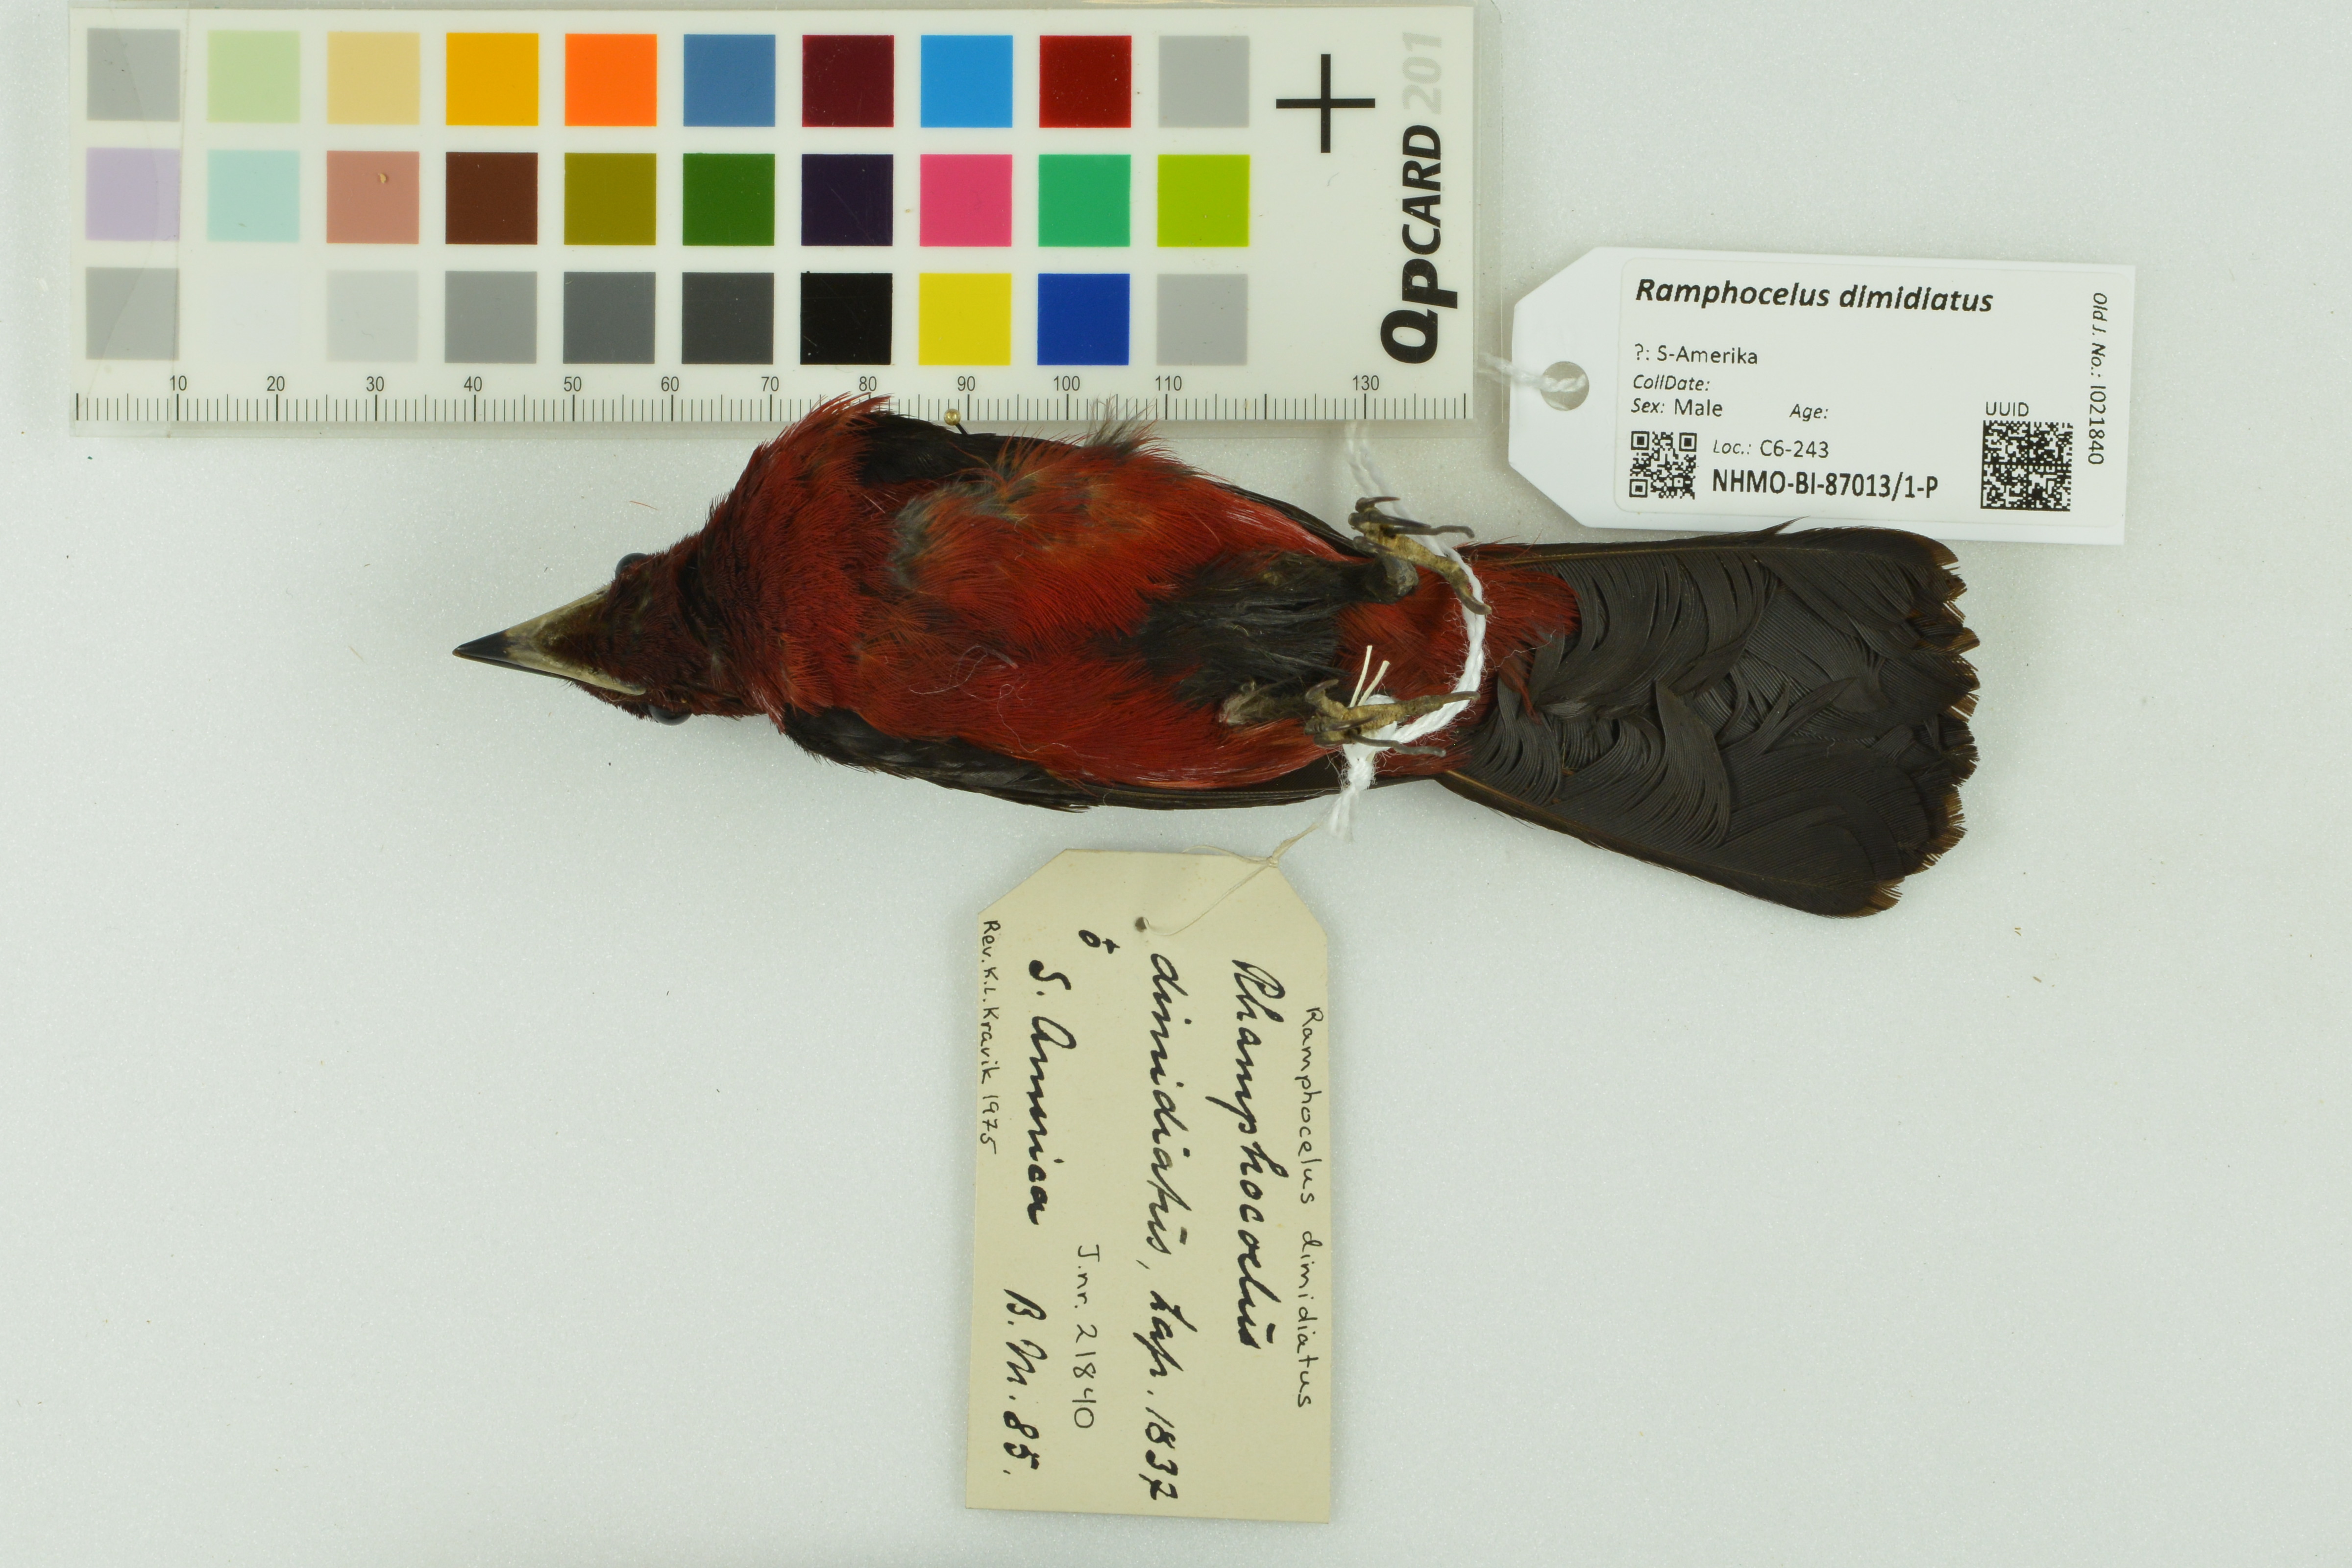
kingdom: Animalia
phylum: Chordata
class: Aves
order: Passeriformes
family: Thraupidae
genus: Ramphocelus
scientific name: Ramphocelus dimidiatus
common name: Crimson-backed tanager
